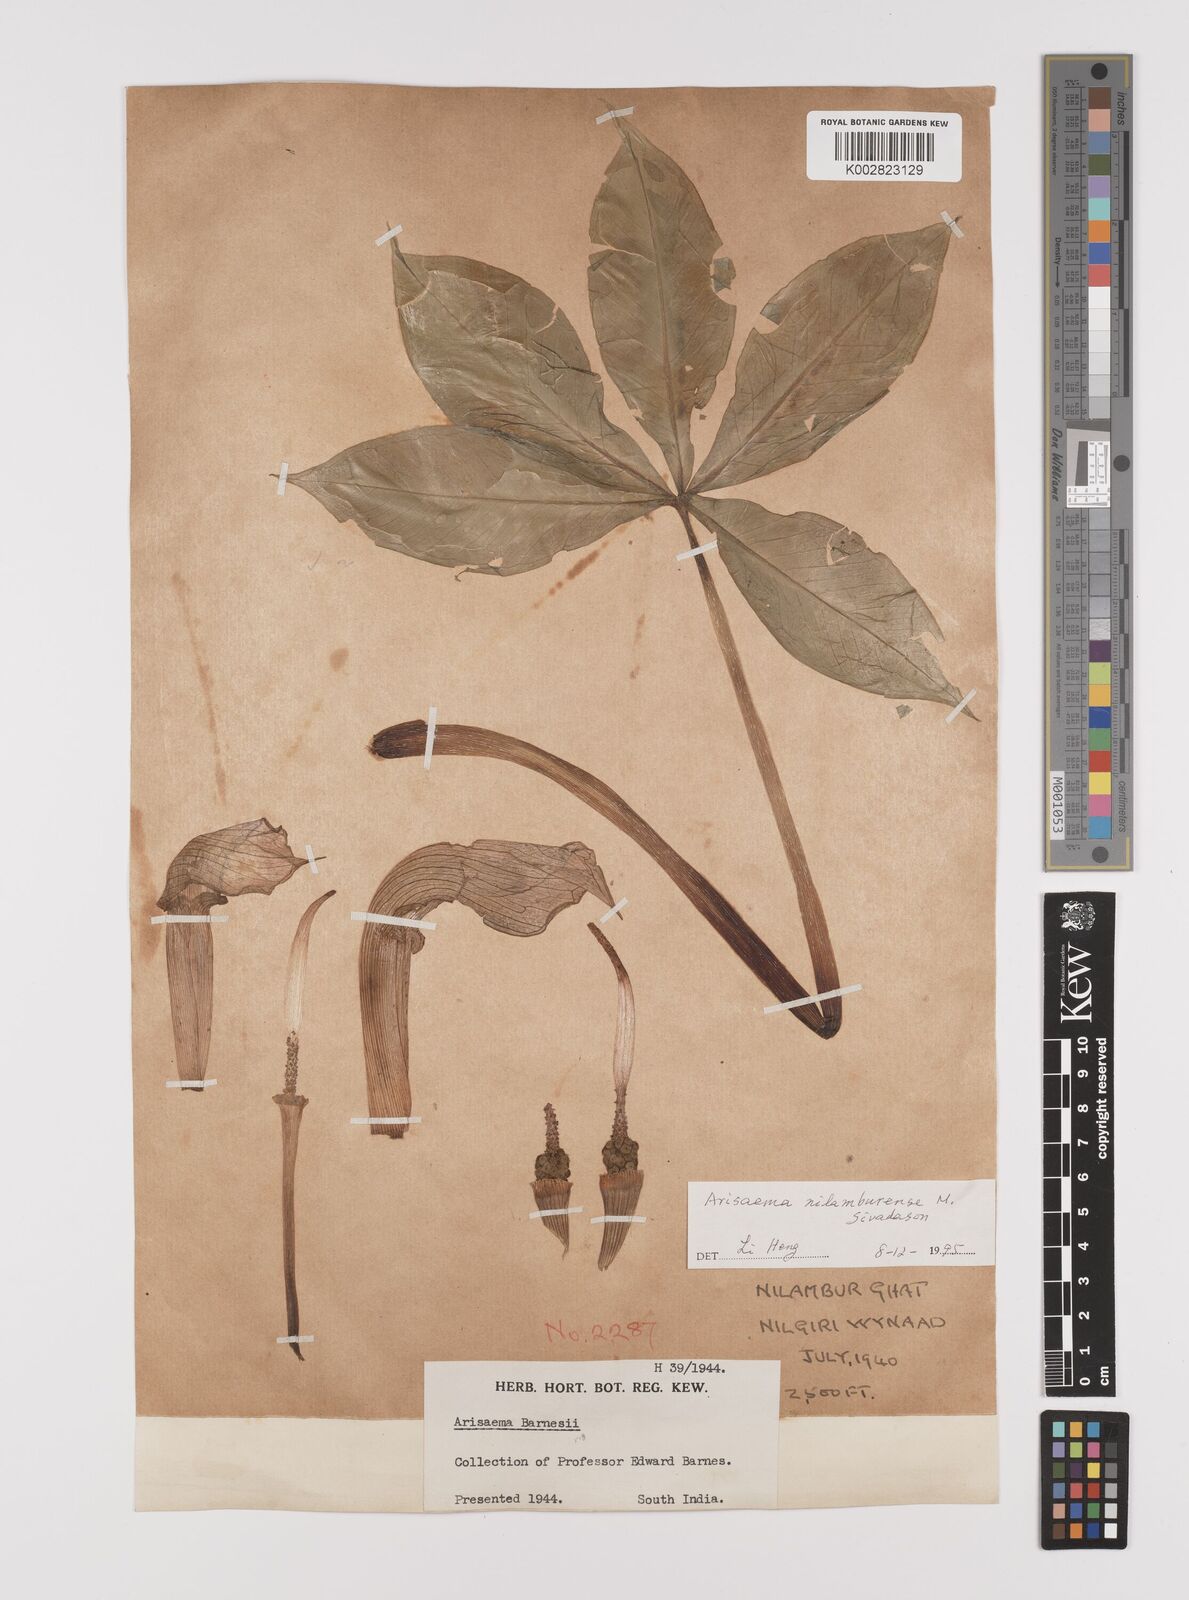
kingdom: Plantae
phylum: Tracheophyta
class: Liliopsida
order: Alismatales
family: Araceae
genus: Arisaema
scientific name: Arisaema nilamburense
